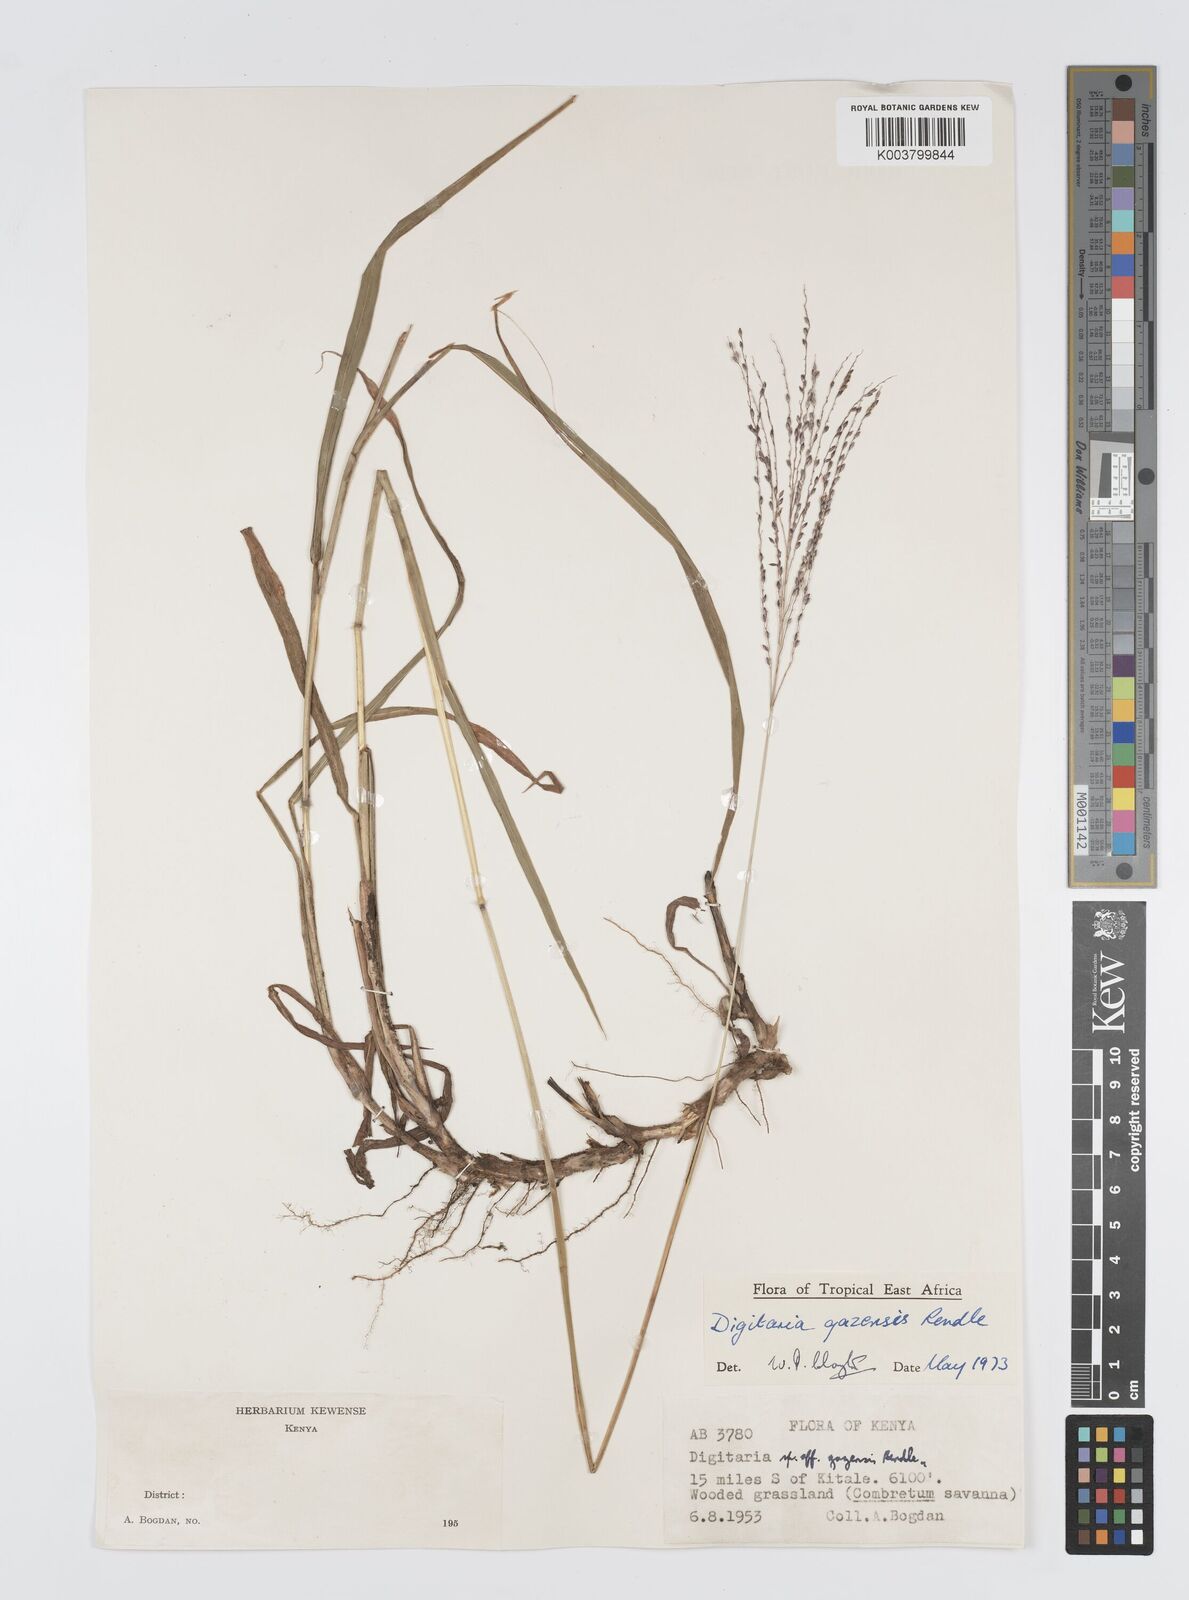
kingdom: Plantae
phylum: Tracheophyta
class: Liliopsida
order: Poales
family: Poaceae
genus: Digitaria
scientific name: Digitaria gazensis
